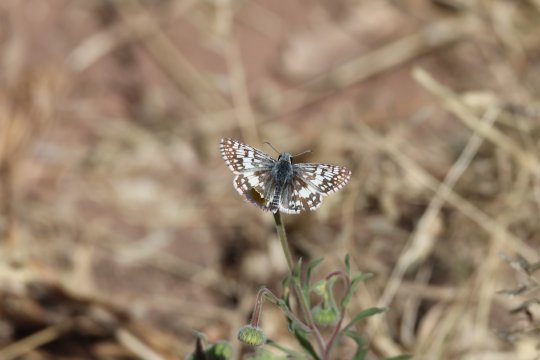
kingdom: Animalia
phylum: Arthropoda
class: Insecta
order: Lepidoptera
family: Hesperiidae
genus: Pyrgus
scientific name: Pyrgus communis
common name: Common Checkered-Skipper
